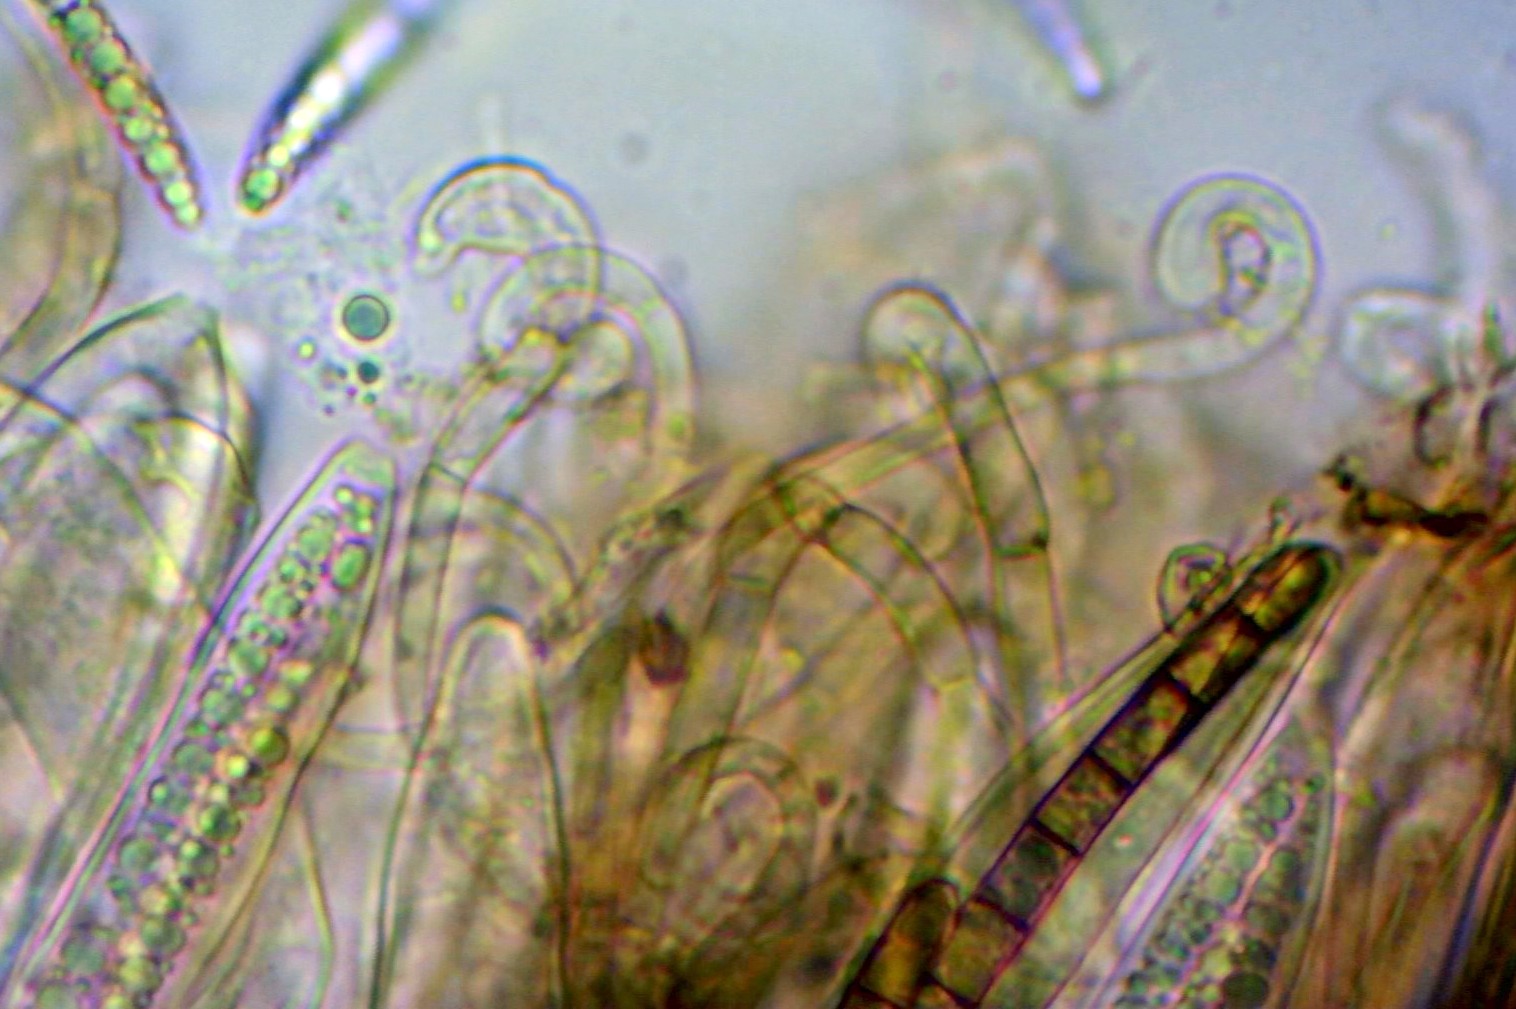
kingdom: Fungi
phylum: Ascomycota
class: Geoglossomycetes
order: Geoglossales
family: Geoglossaceae
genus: Hemileucoglossum
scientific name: Hemileucoglossum elongatum
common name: småsporet jordtunge
